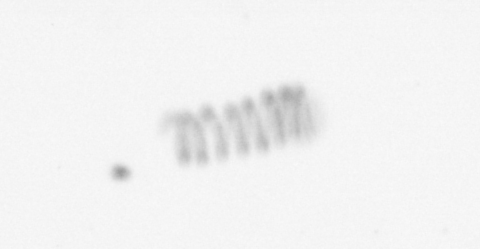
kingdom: Chromista
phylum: Ochrophyta
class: Bacillariophyceae
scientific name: Bacillariophyceae
